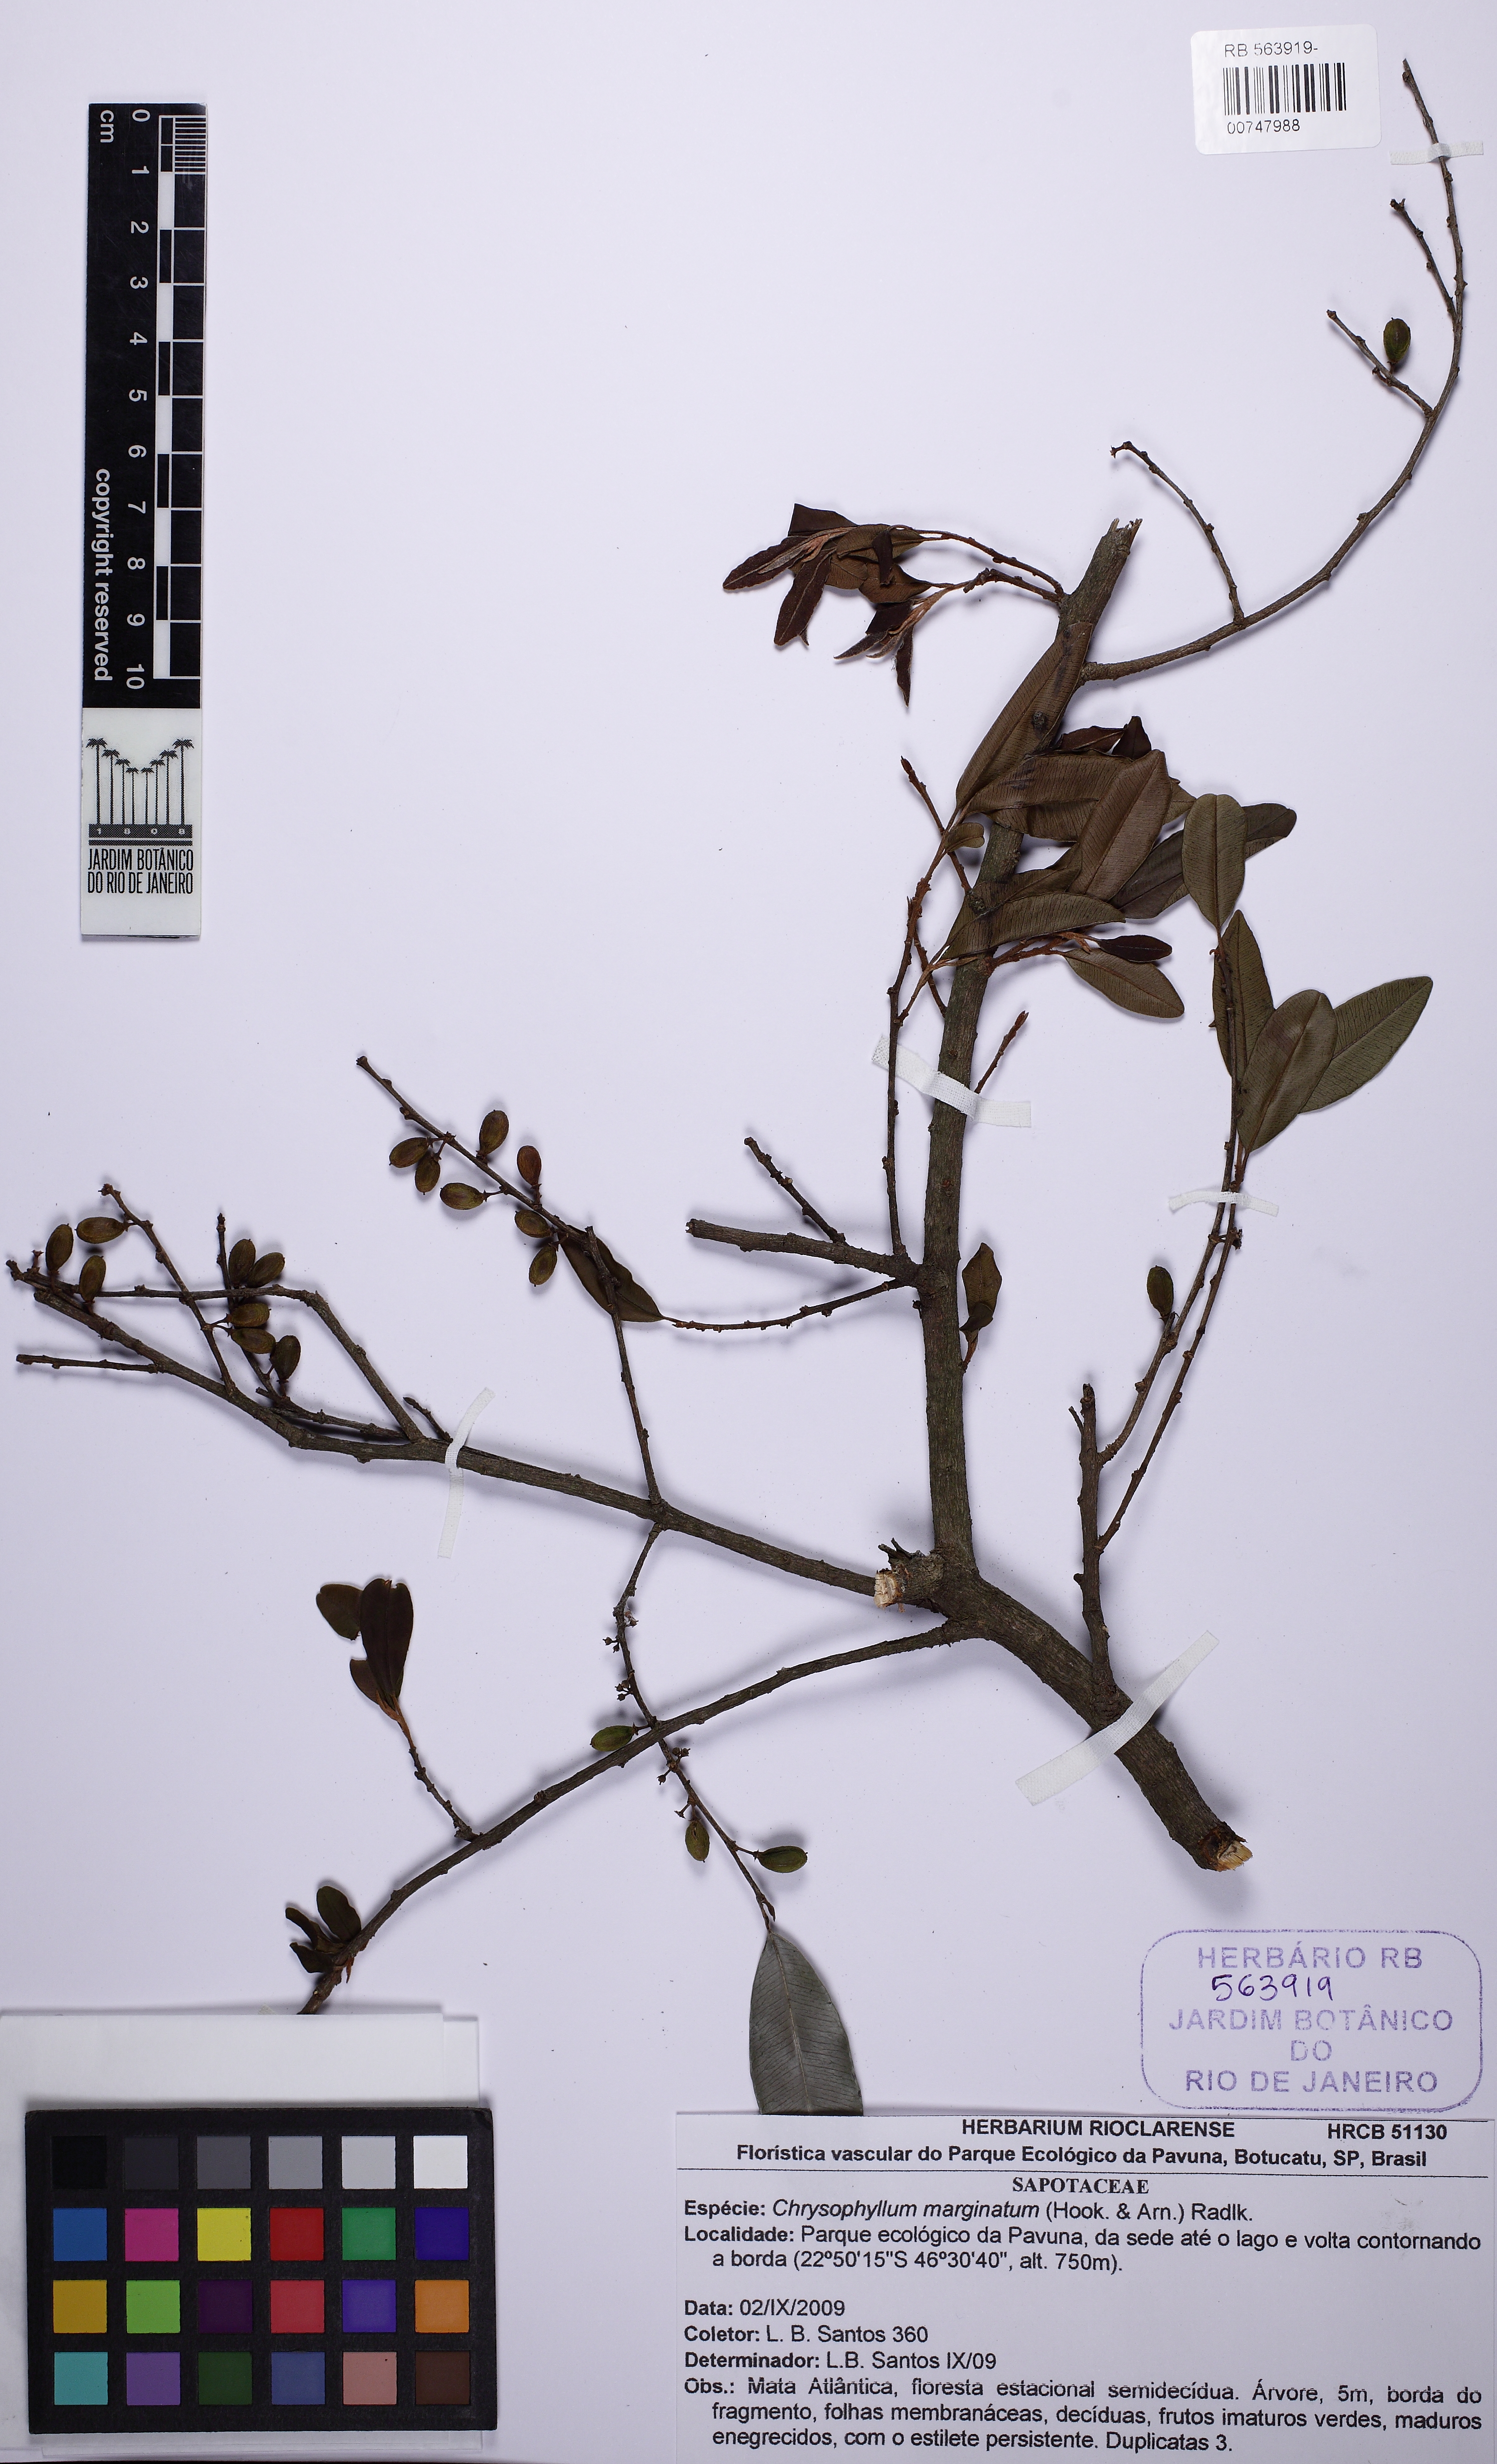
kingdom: Plantae
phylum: Tracheophyta
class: Magnoliopsida
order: Ericales
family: Sapotaceae
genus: Chrysophyllum
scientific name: Chrysophyllum marginatum
